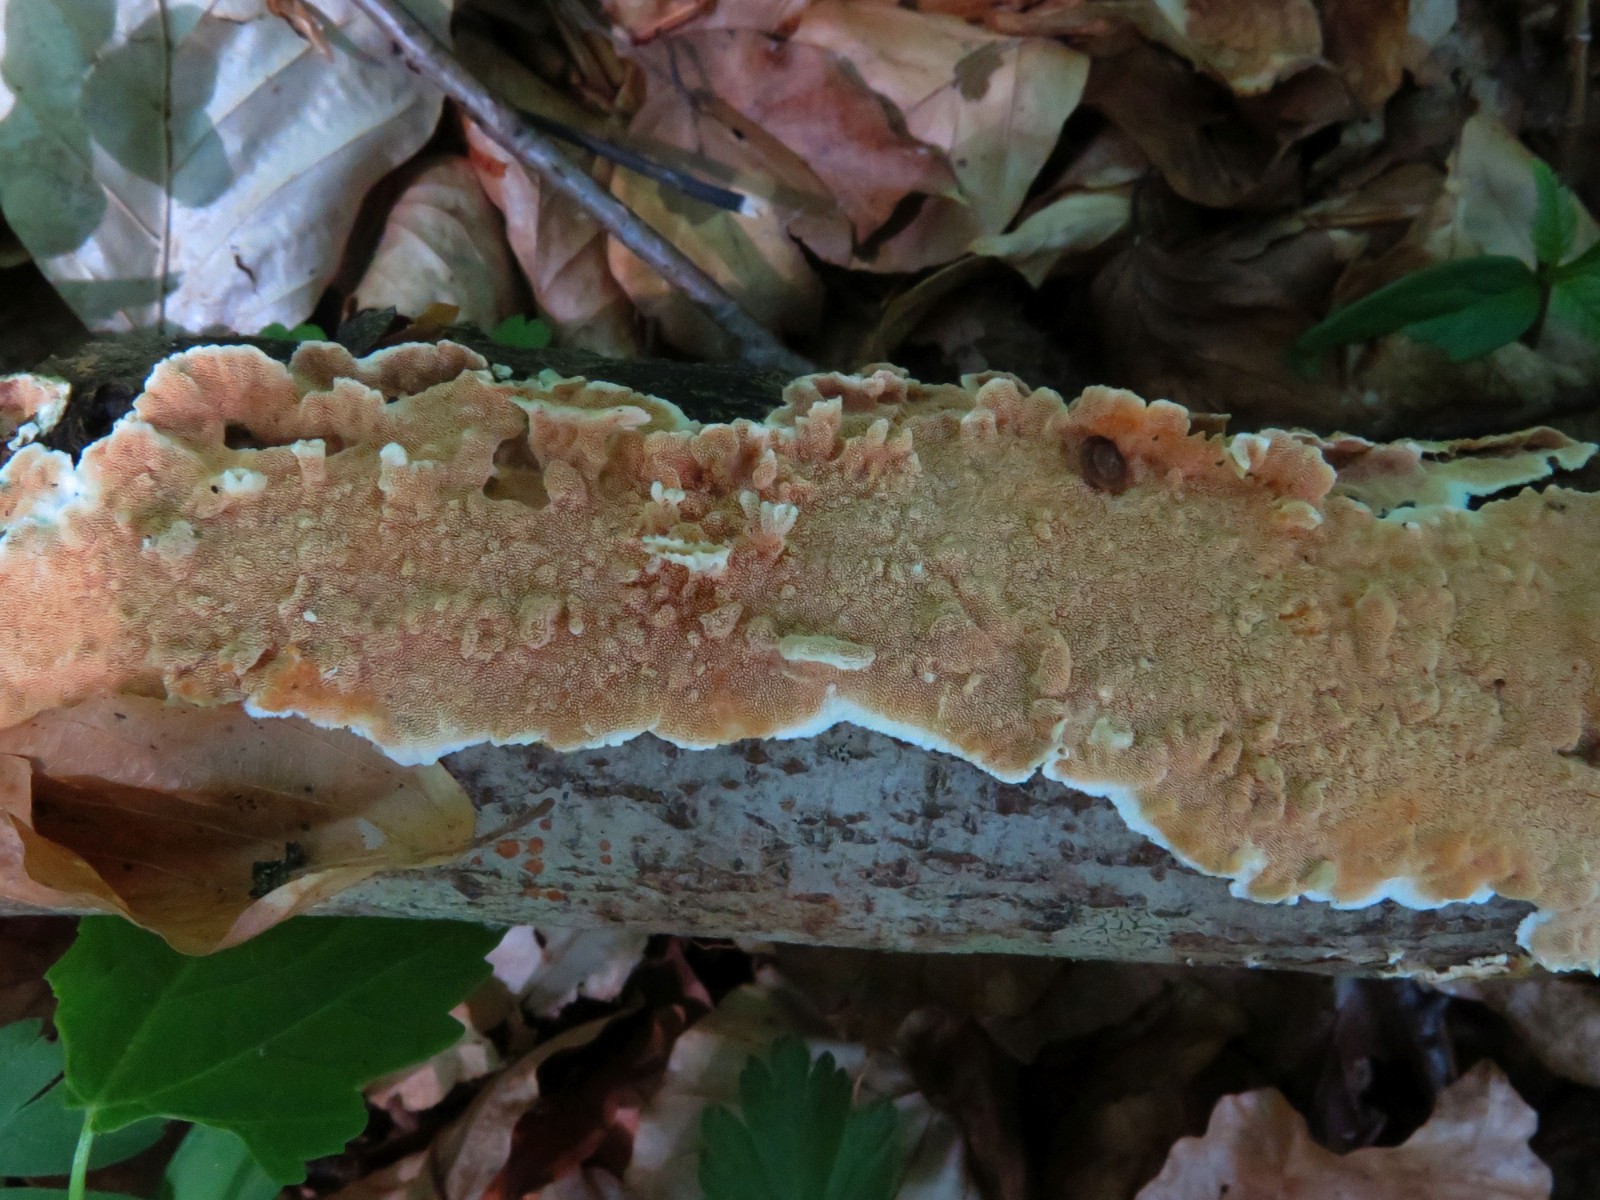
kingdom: Fungi
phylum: Basidiomycota
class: Agaricomycetes
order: Polyporales
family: Steccherinaceae
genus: Steccherinum
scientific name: Steccherinum ochraceum
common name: almindelig skønpig
